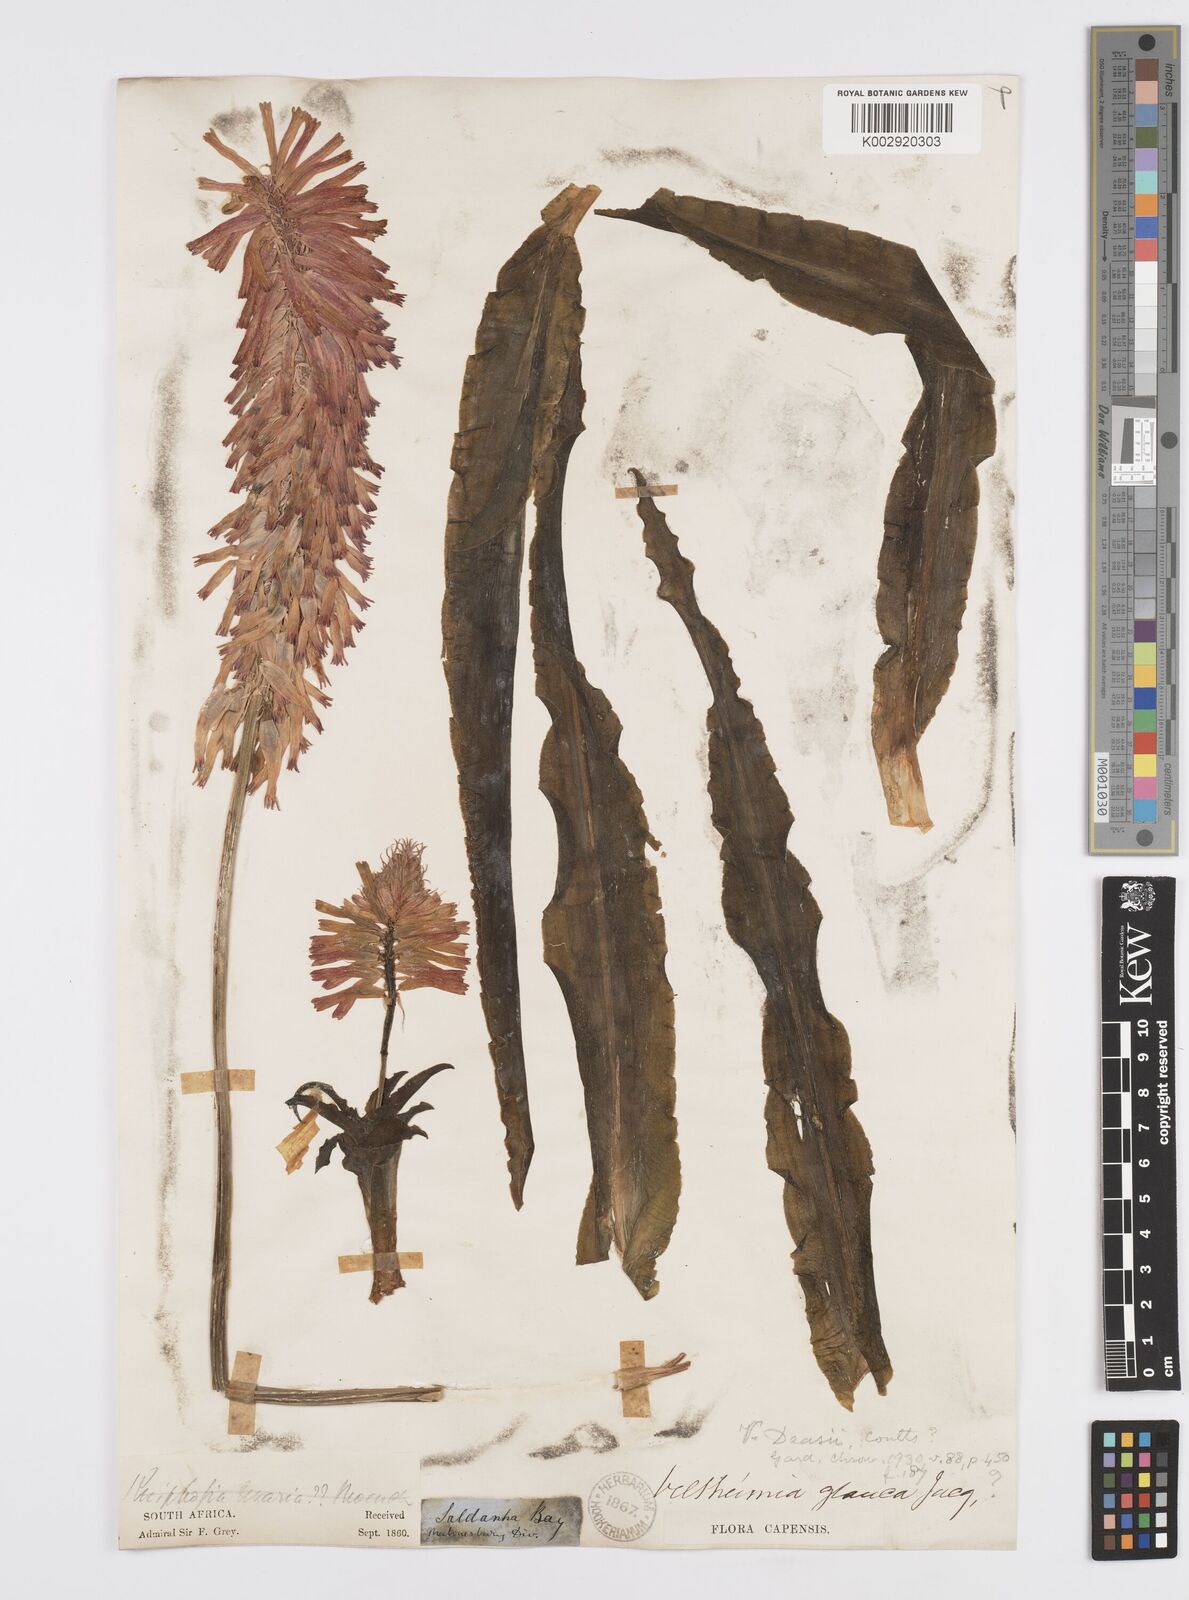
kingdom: Plantae
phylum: Tracheophyta
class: Liliopsida
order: Asparagales
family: Asparagaceae
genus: Veltheimia
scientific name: Veltheimia capensis
